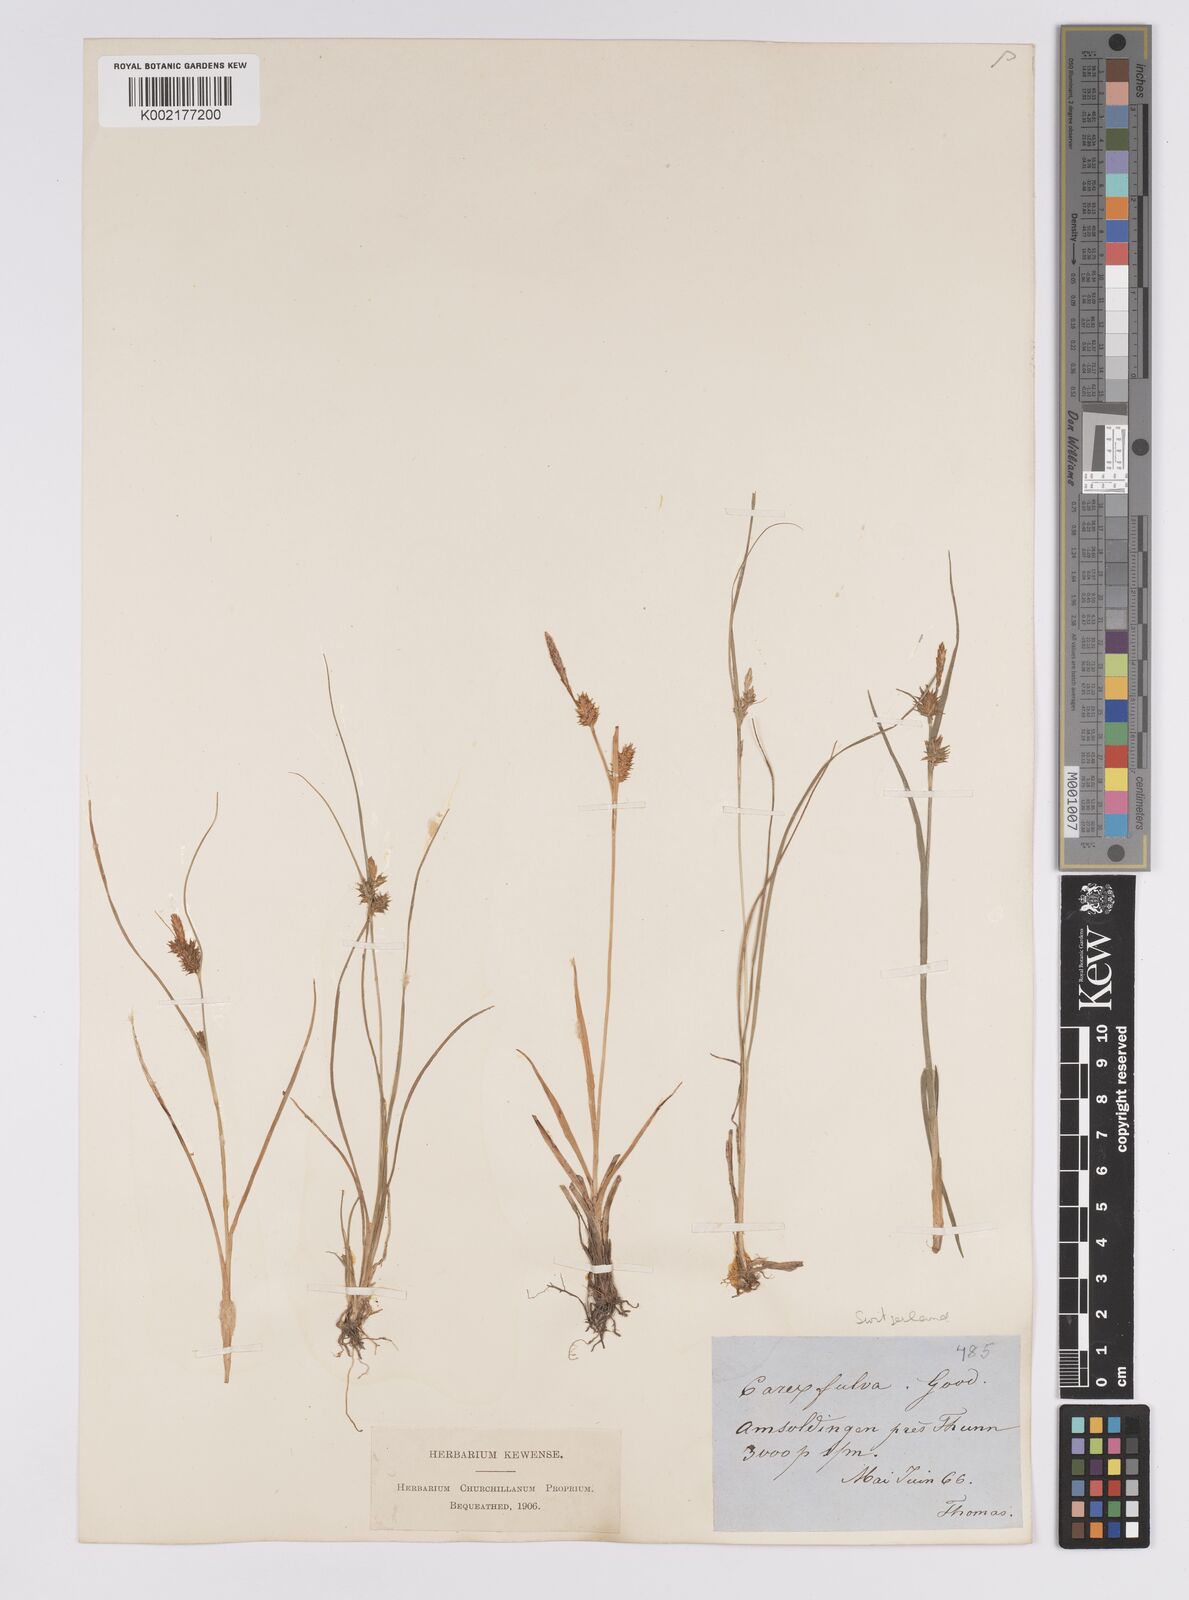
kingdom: Plantae
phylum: Tracheophyta
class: Liliopsida
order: Poales
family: Cyperaceae
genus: Carex
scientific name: Carex hostiana
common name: Tawny sedge
